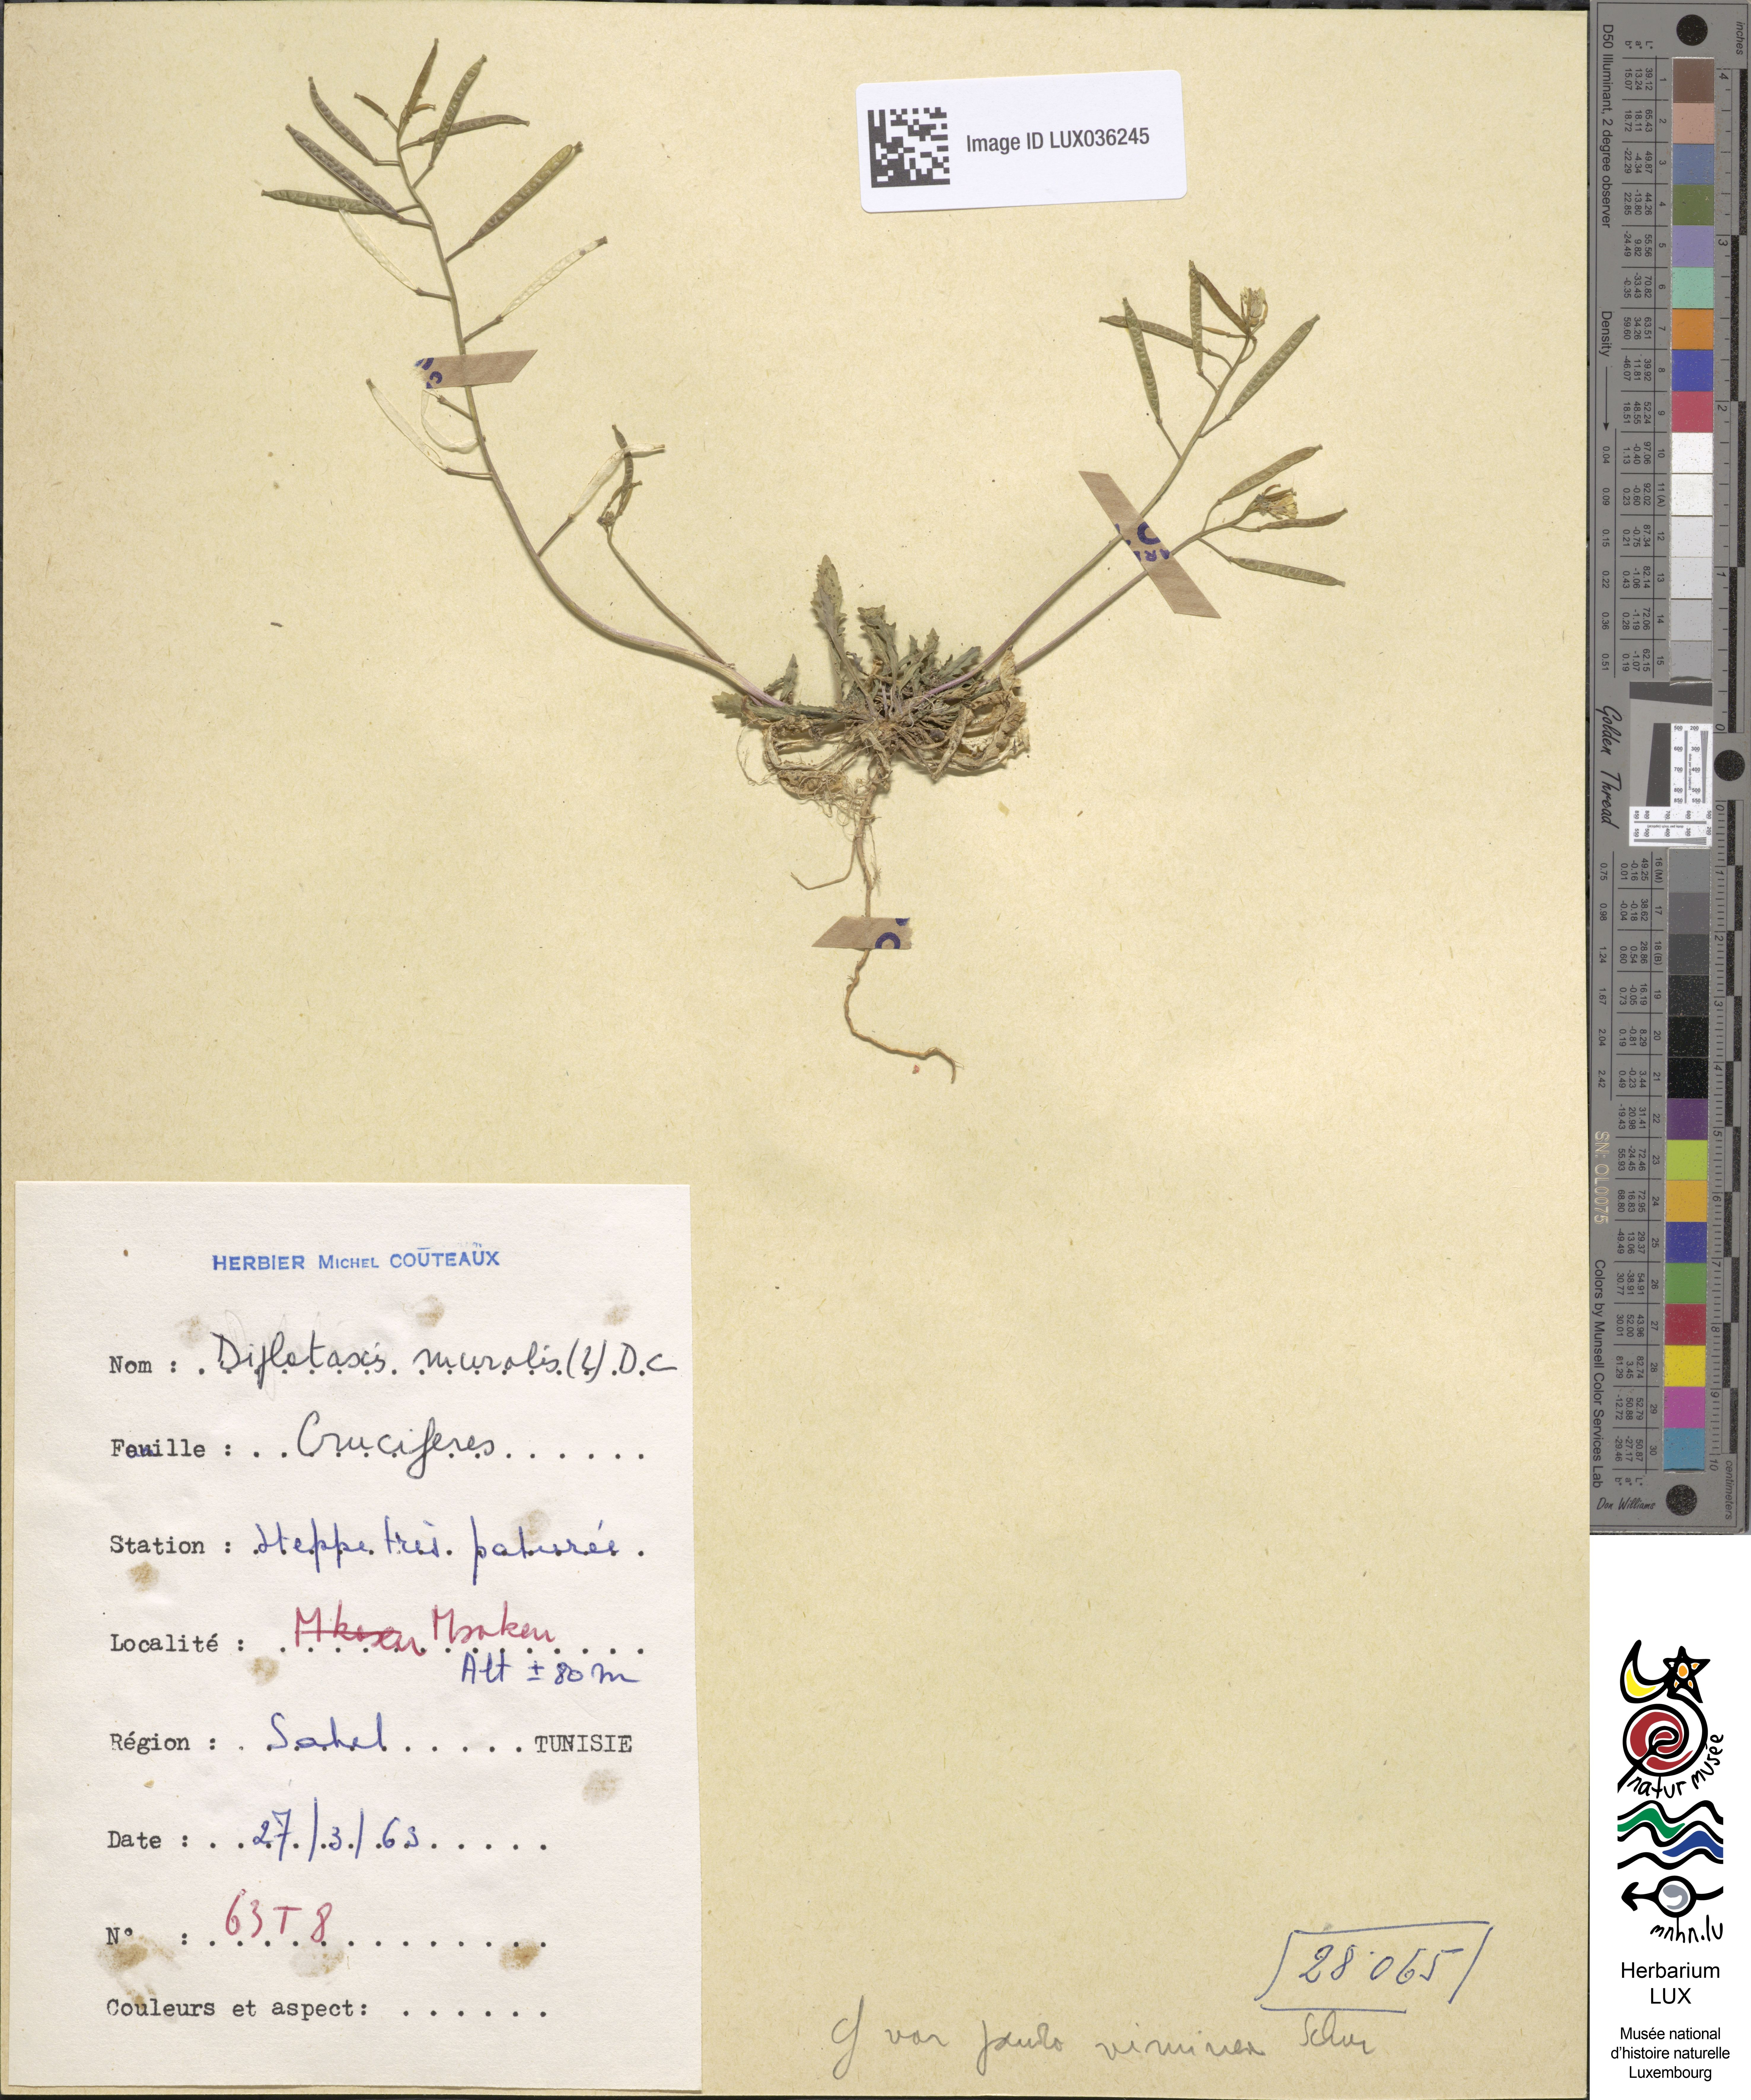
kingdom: Plantae
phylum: Tracheophyta
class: Magnoliopsida
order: Brassicales
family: Brassicaceae
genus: Diplotaxis
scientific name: Diplotaxis muralis
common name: Annual wall-rocket
